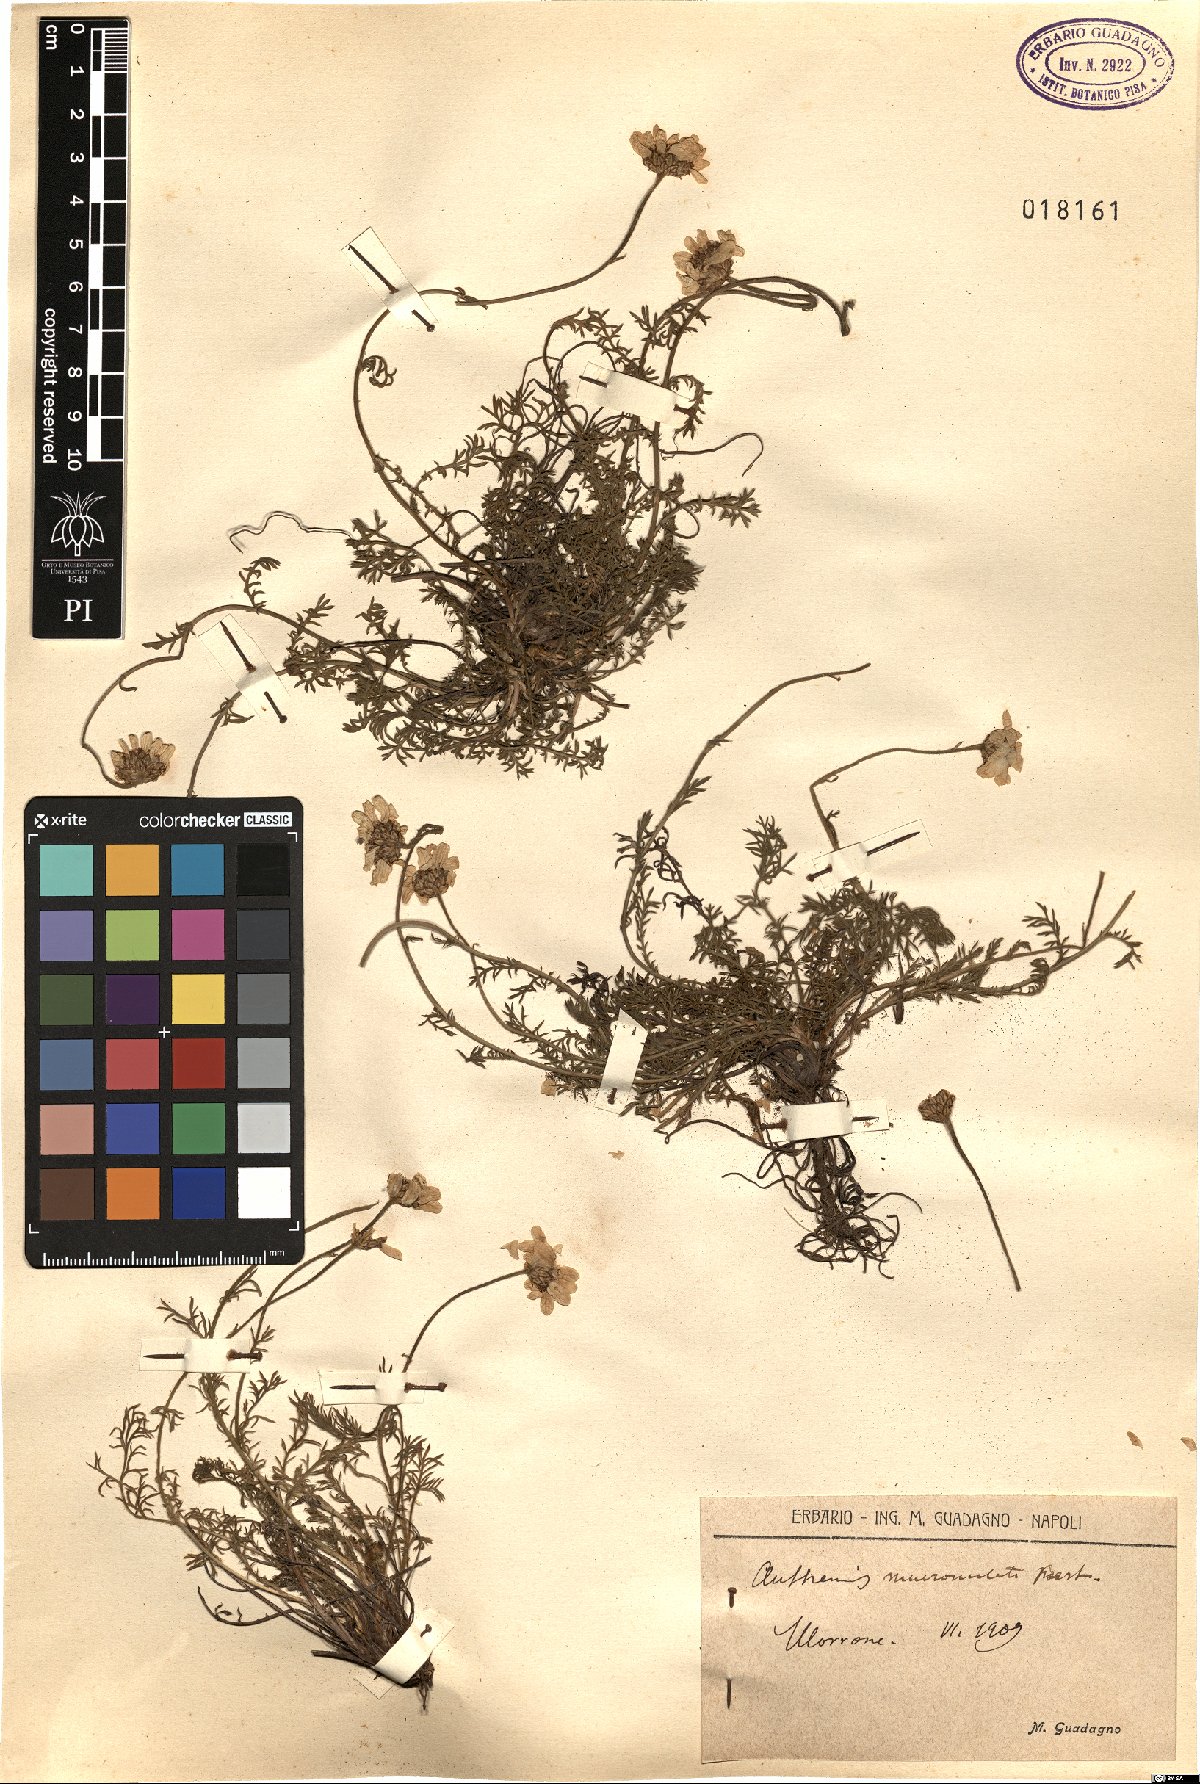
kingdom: Plantae
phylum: Tracheophyta
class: Magnoliopsida
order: Asterales
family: Asteraceae
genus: Achillea
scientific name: Achillea barrelieri
